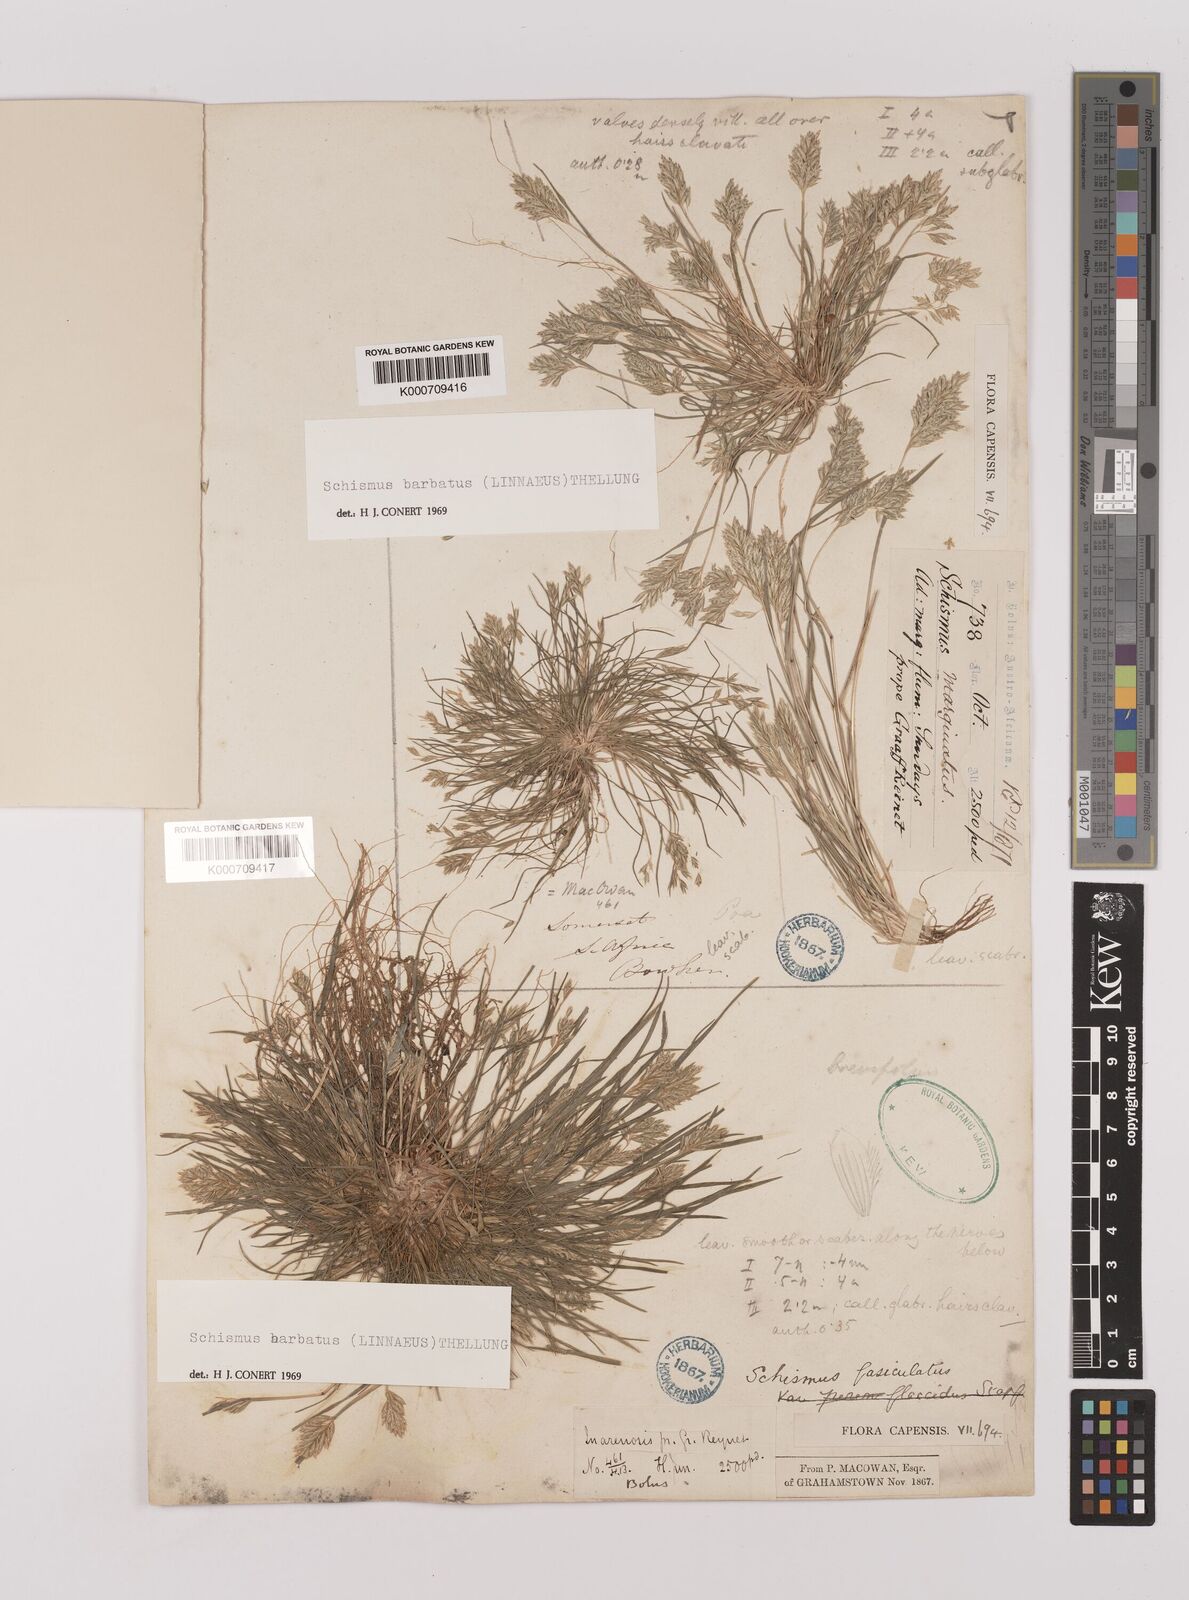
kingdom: Plantae
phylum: Tracheophyta
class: Liliopsida
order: Poales
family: Poaceae
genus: Schismus
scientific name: Schismus barbatus
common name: Kelch-grass
